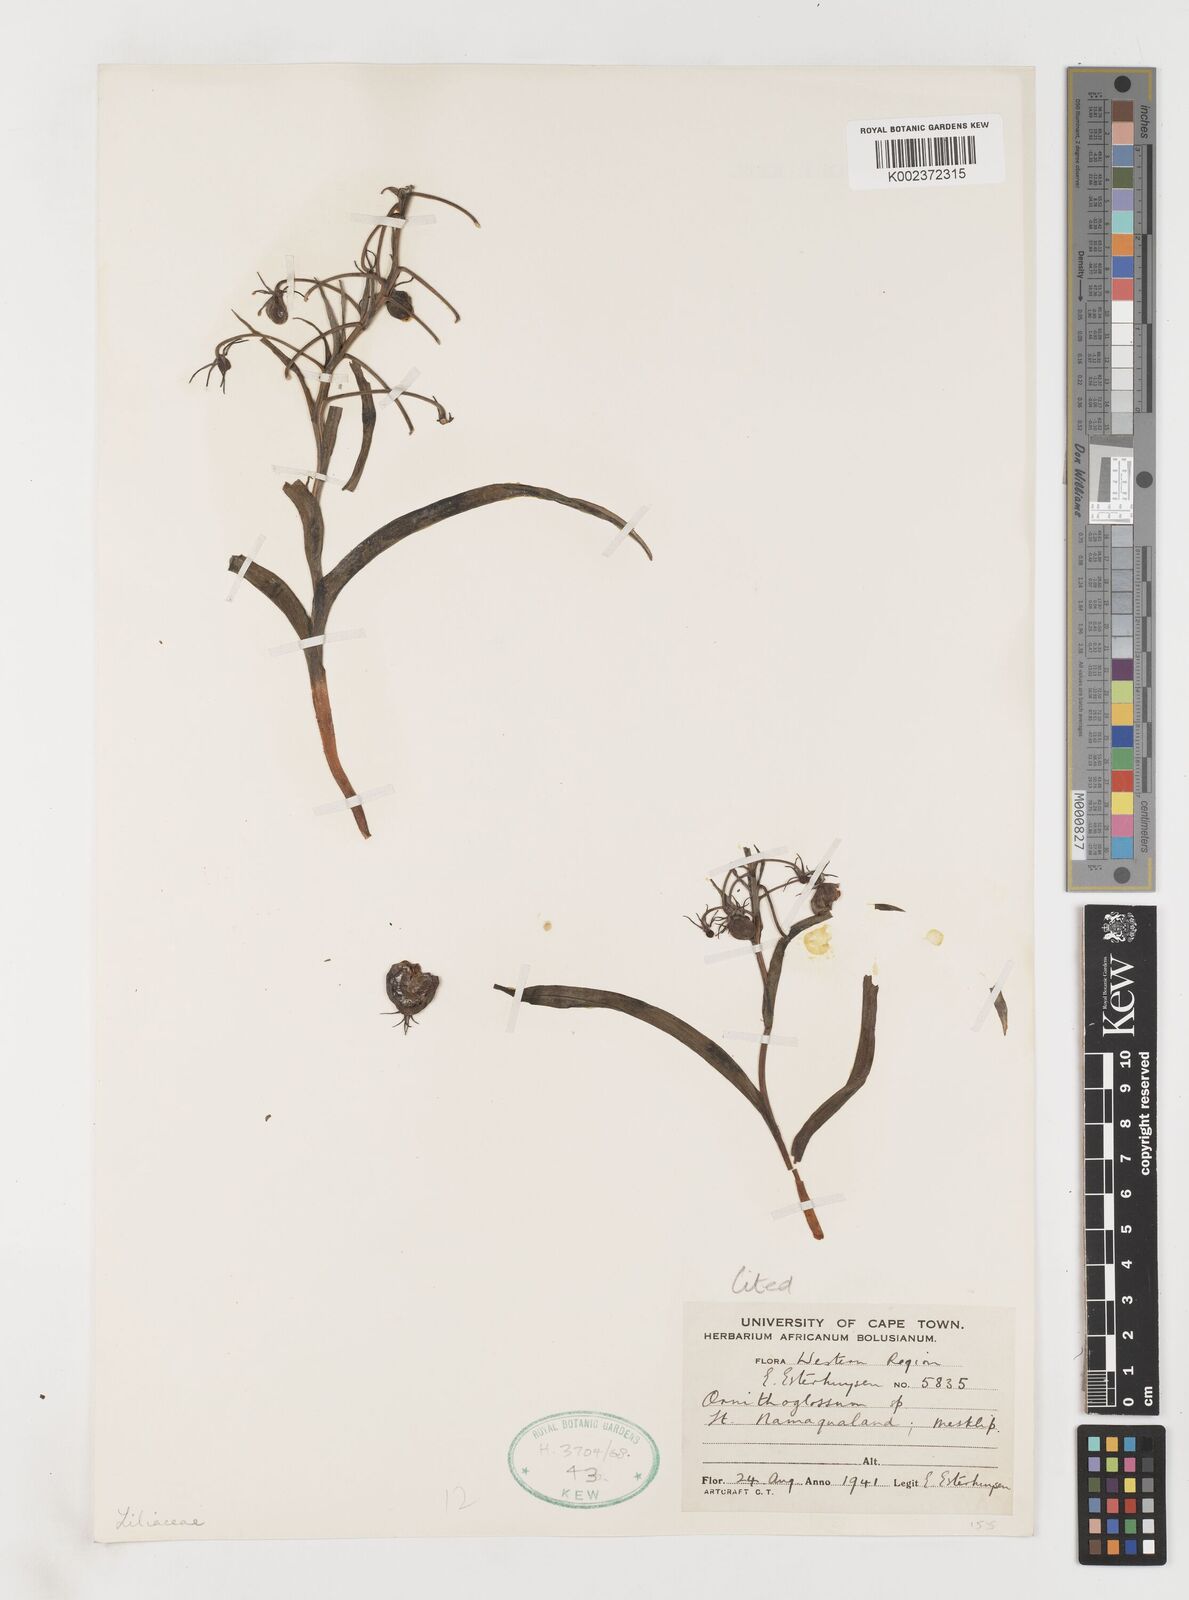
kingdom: Plantae
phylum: Tracheophyta
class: Liliopsida
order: Liliales
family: Colchicaceae
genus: Ornithoglossum
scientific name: Ornithoglossum vulgare
